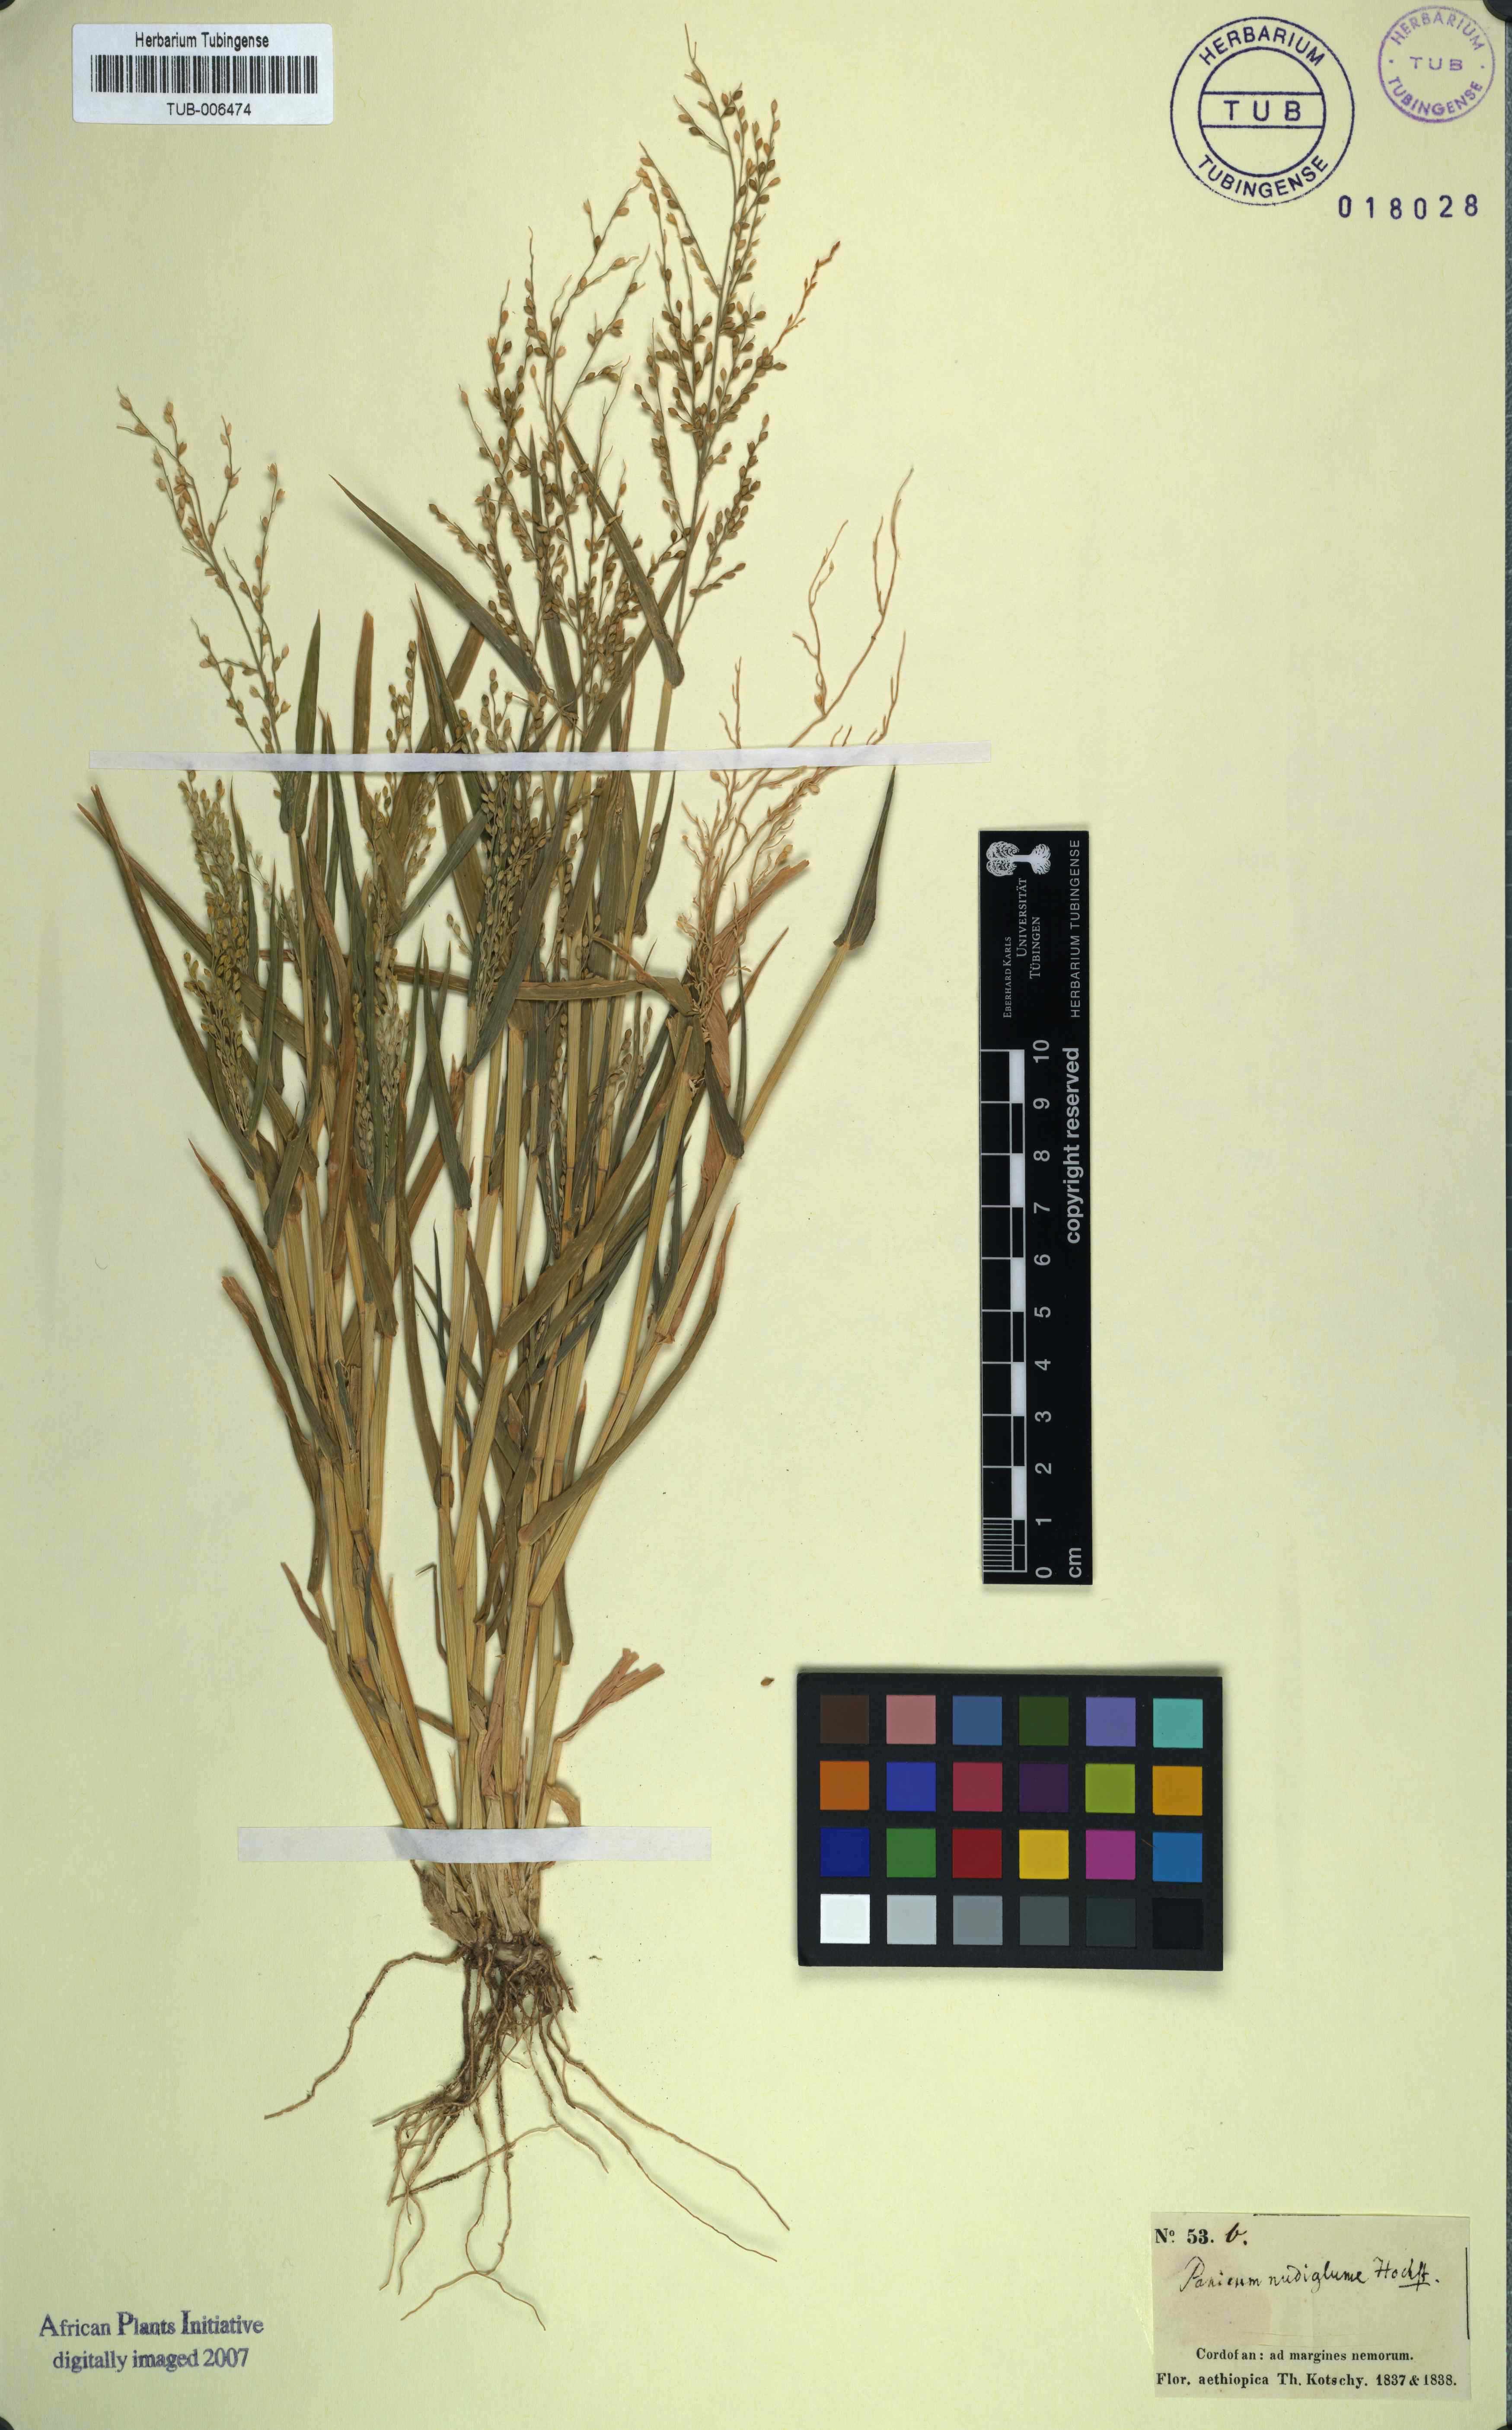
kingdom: Plantae
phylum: Tracheophyta
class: Liliopsida
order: Poales
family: Poaceae
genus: Urochloa
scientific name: Urochloa ramosa
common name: Browntop millet
